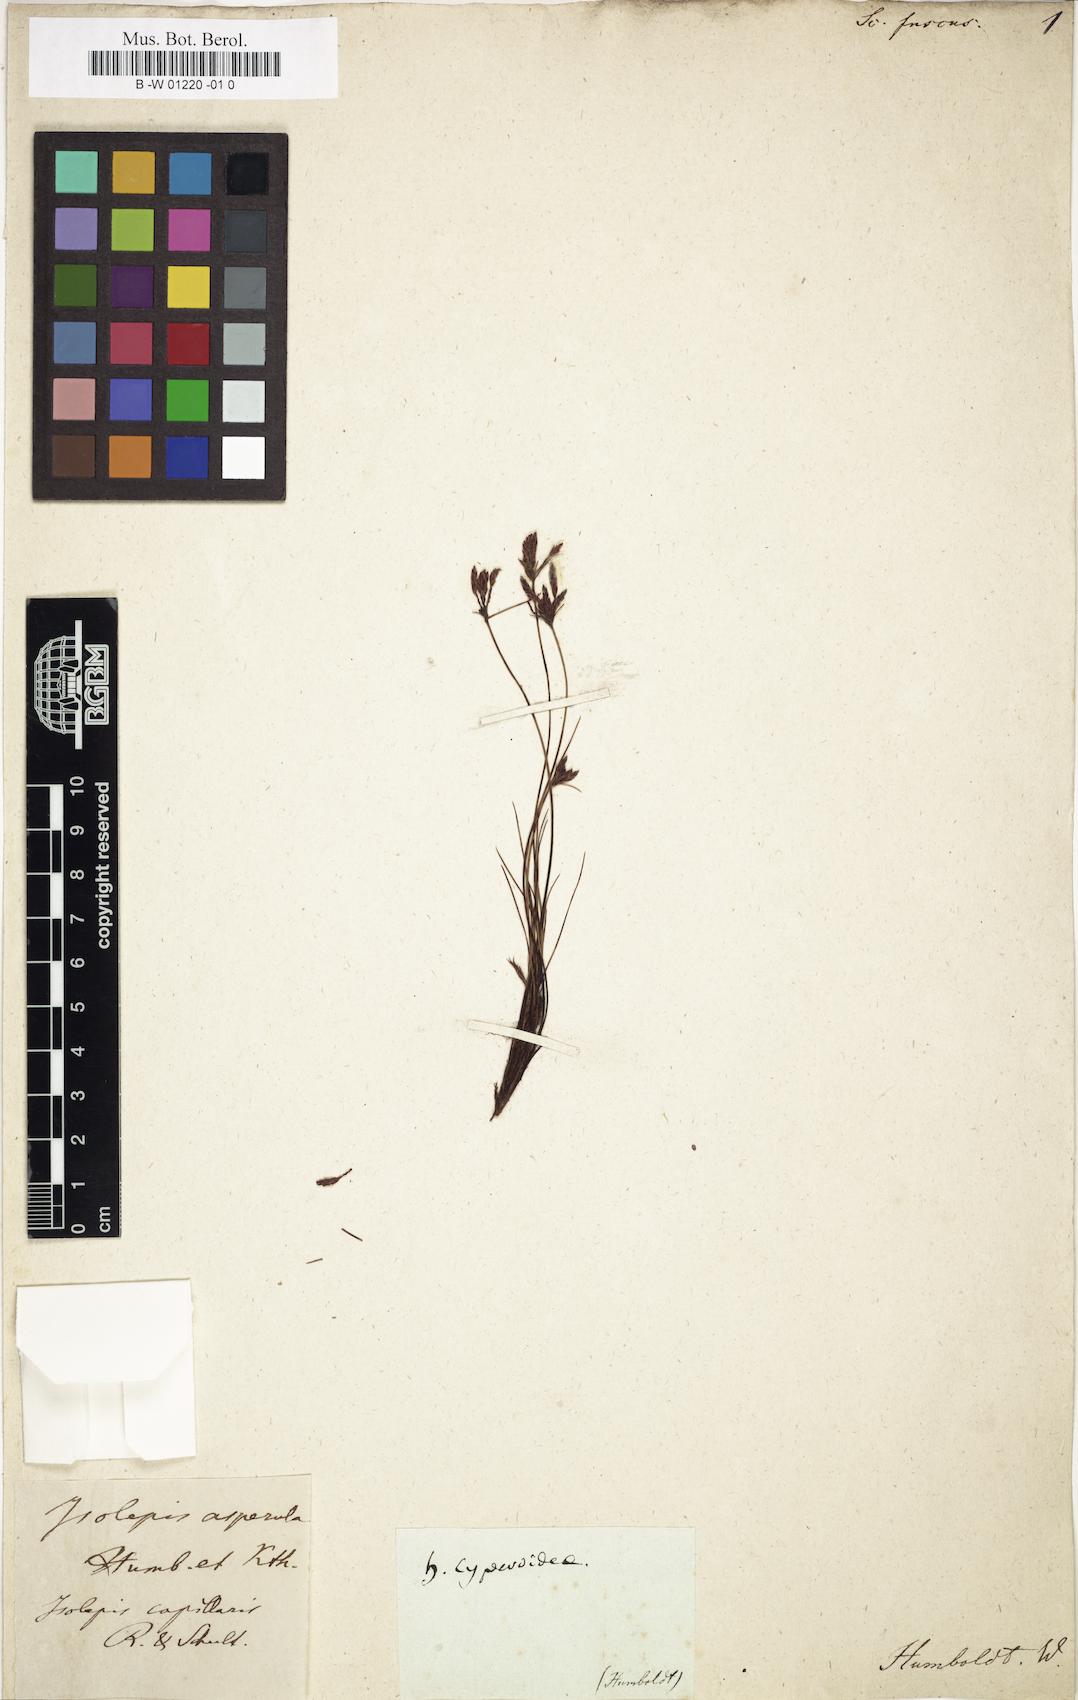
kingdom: Plantae
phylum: Tracheophyta
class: Liliopsida
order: Poales
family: Cyperaceae
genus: Bulbostylis
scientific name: Bulbostylis tenuifolia
